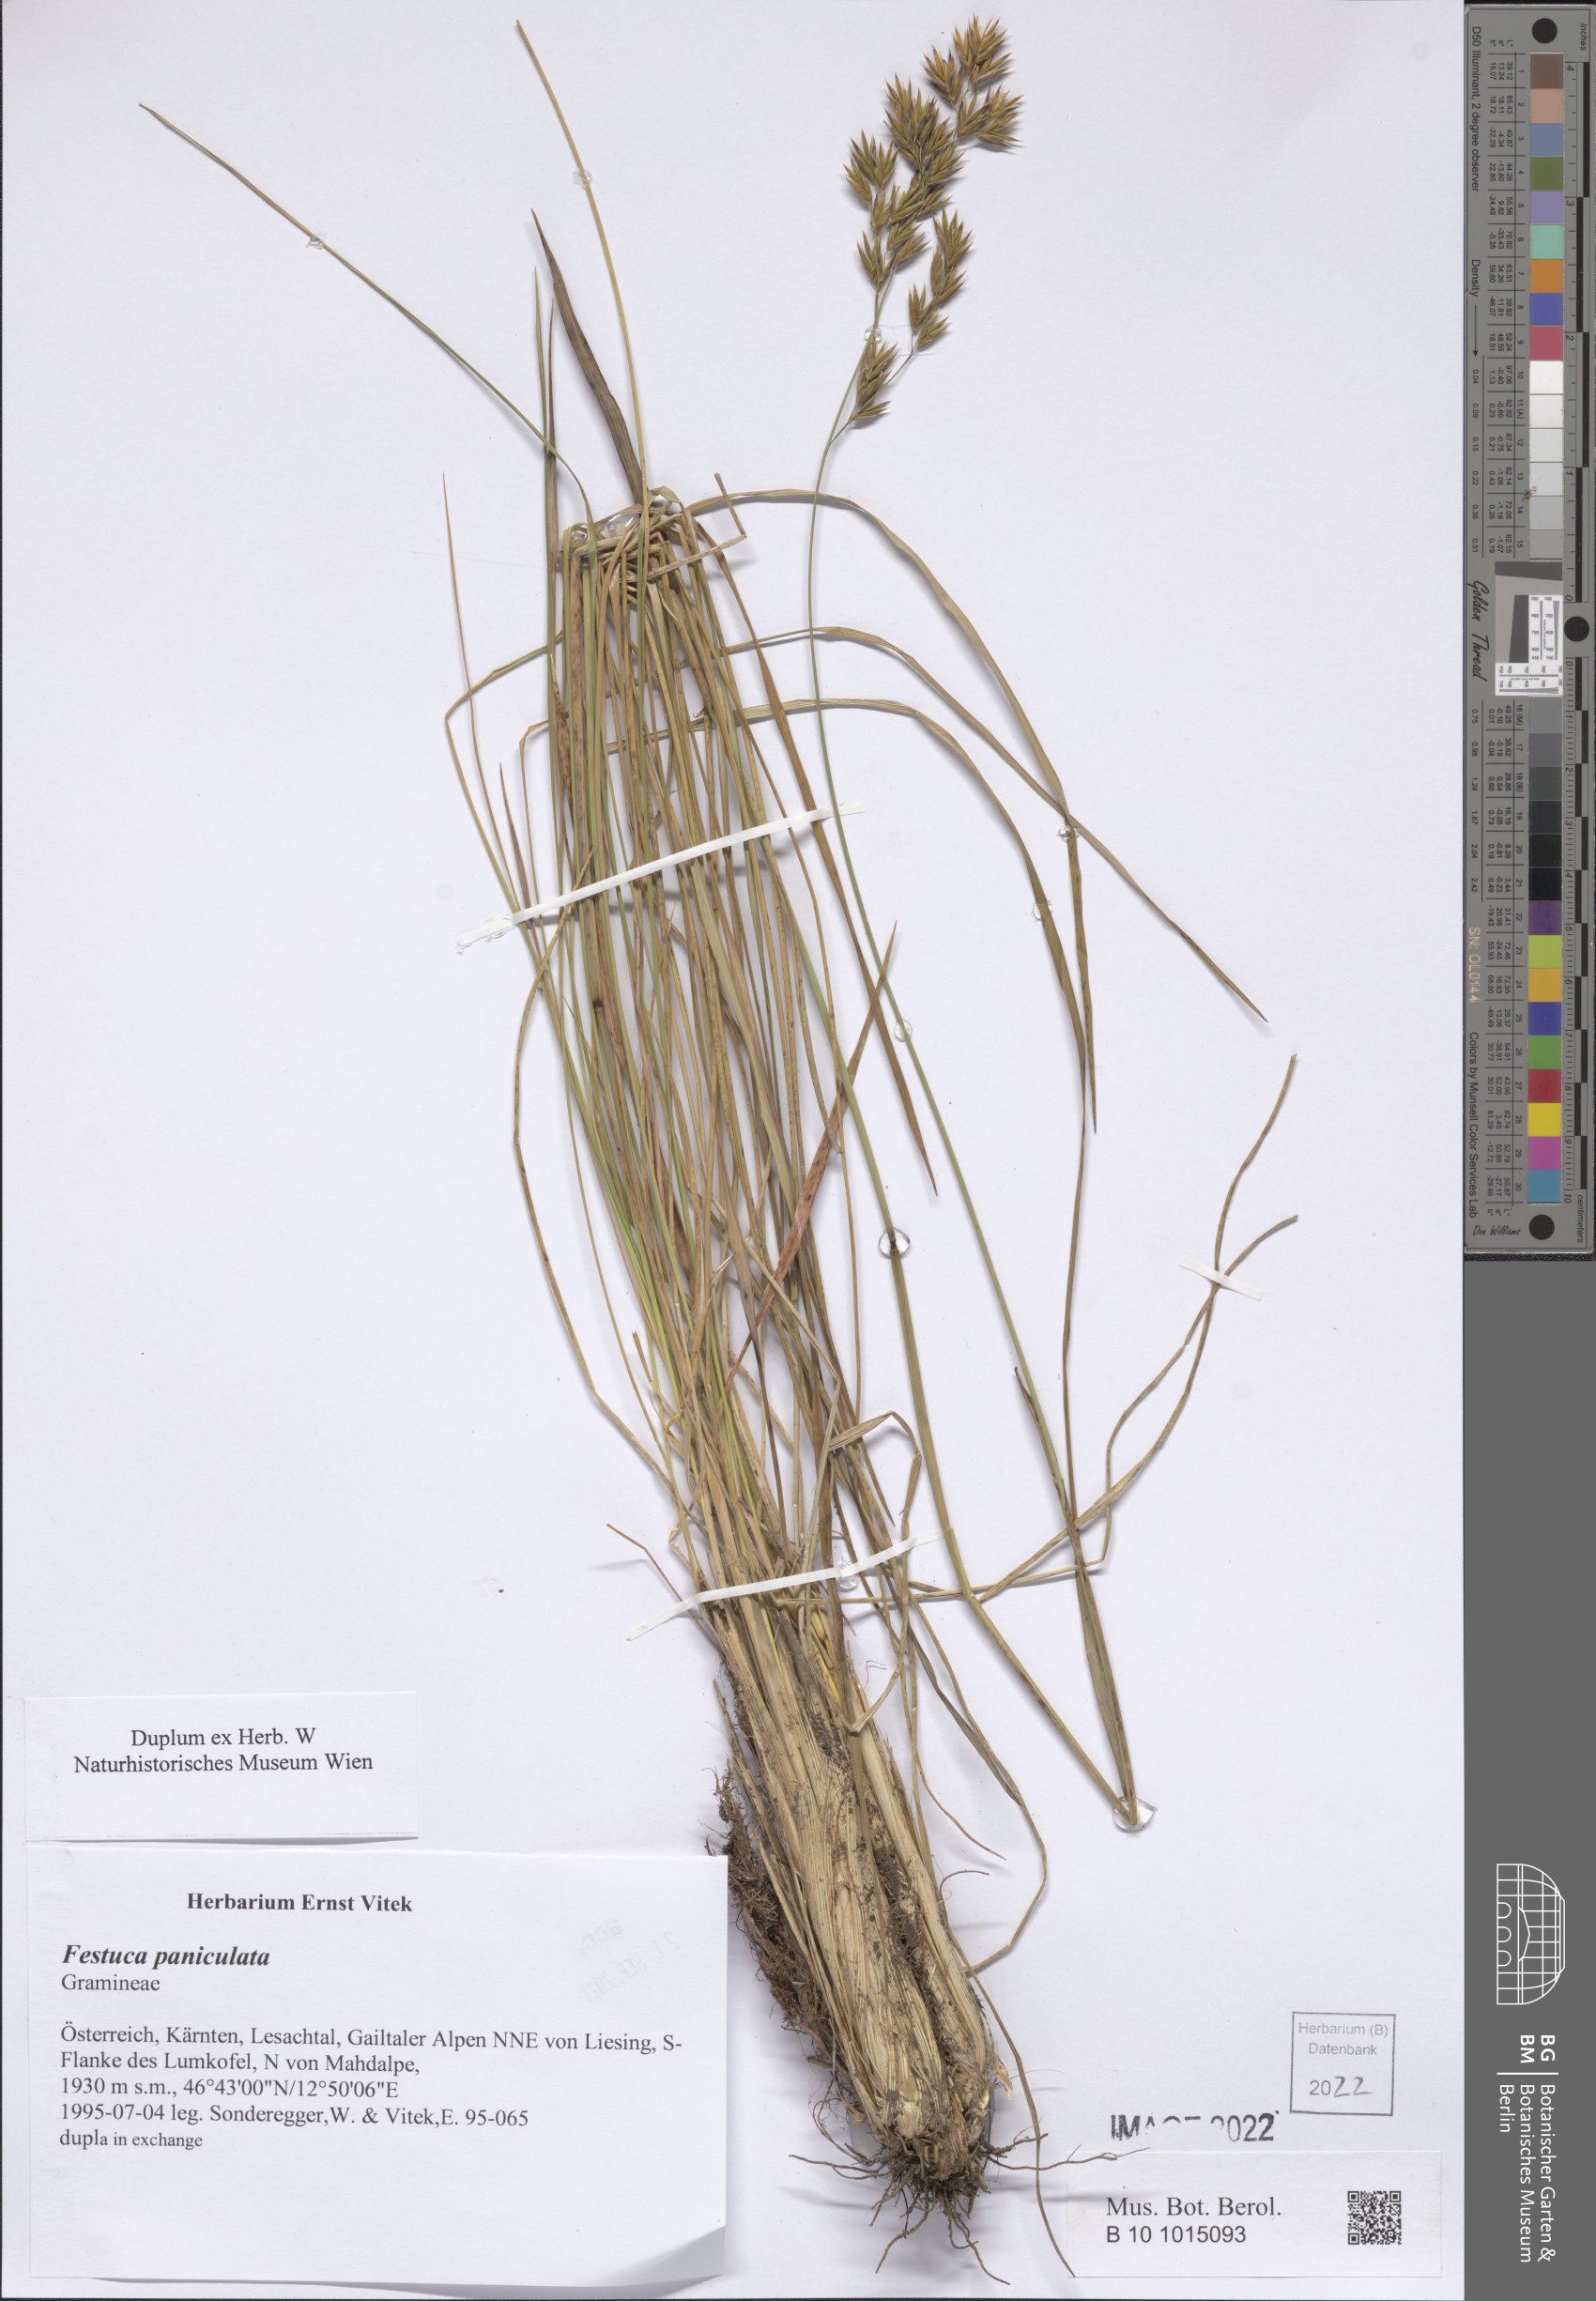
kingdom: Plantae
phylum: Tracheophyta
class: Liliopsida
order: Poales
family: Poaceae
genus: Patzkea
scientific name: Patzkea paniculata
